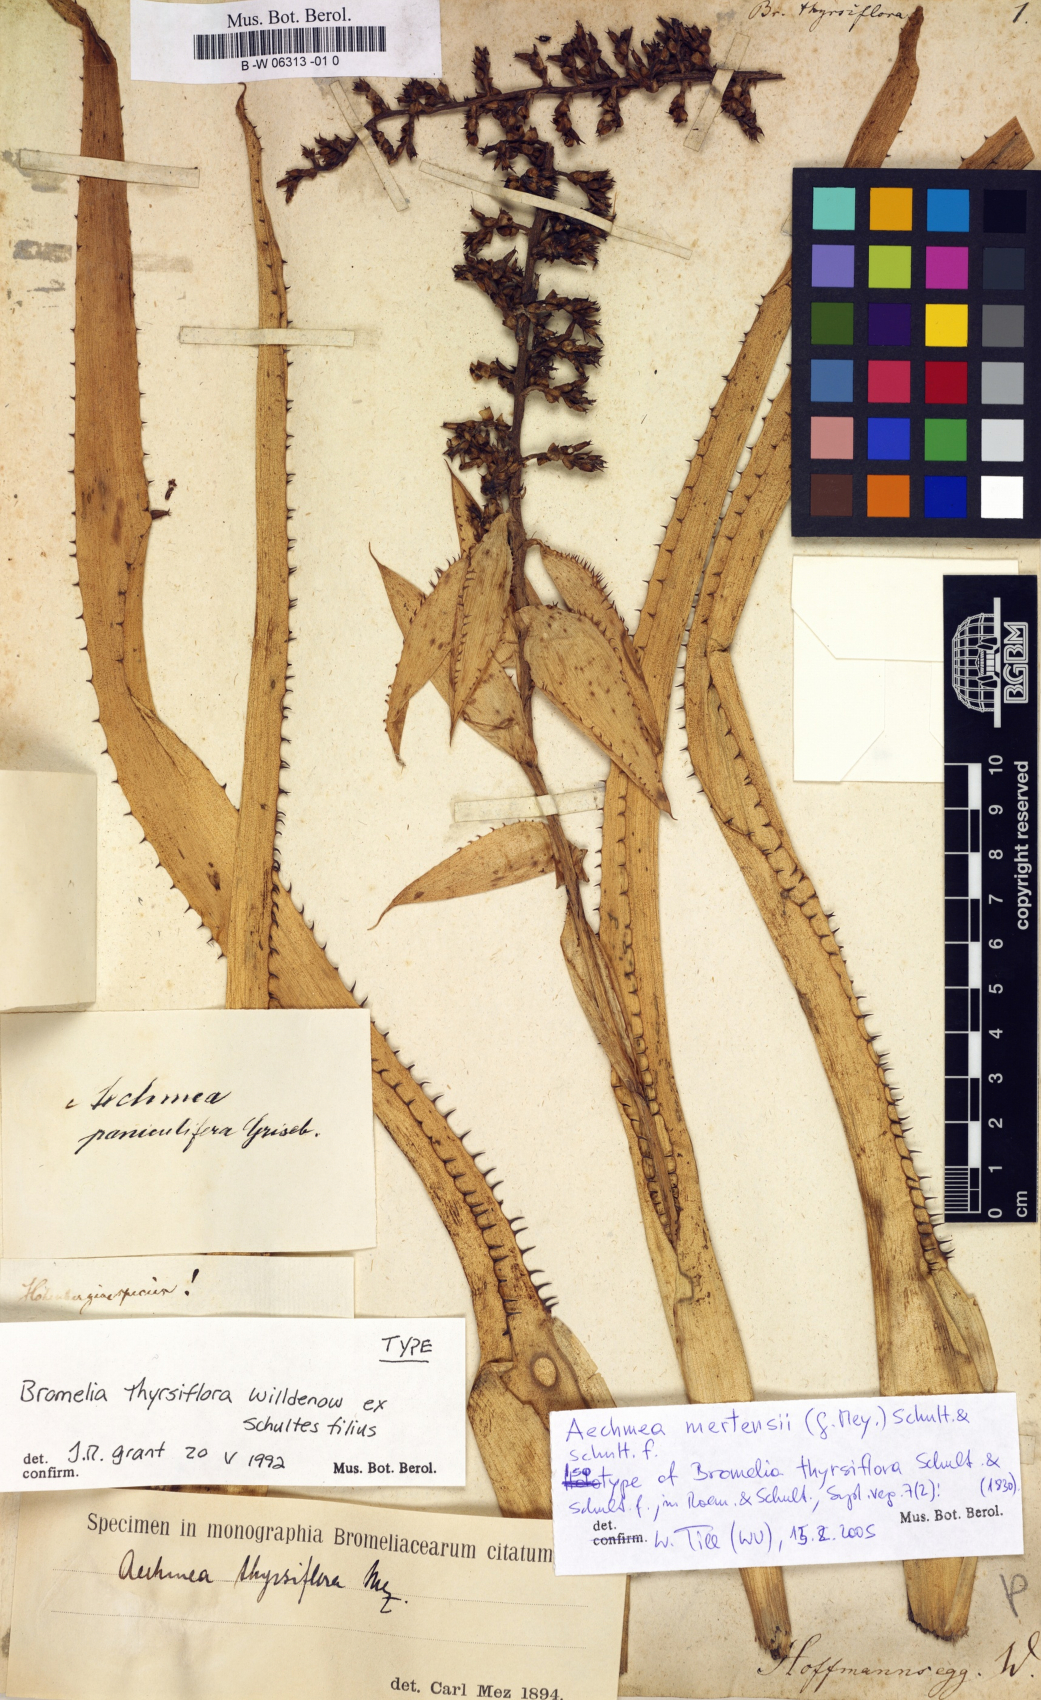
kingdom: Plantae
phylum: Tracheophyta
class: Liliopsida
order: Poales
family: Bromeliaceae
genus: Bromelia
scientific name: Bromelia thyrsiflora
